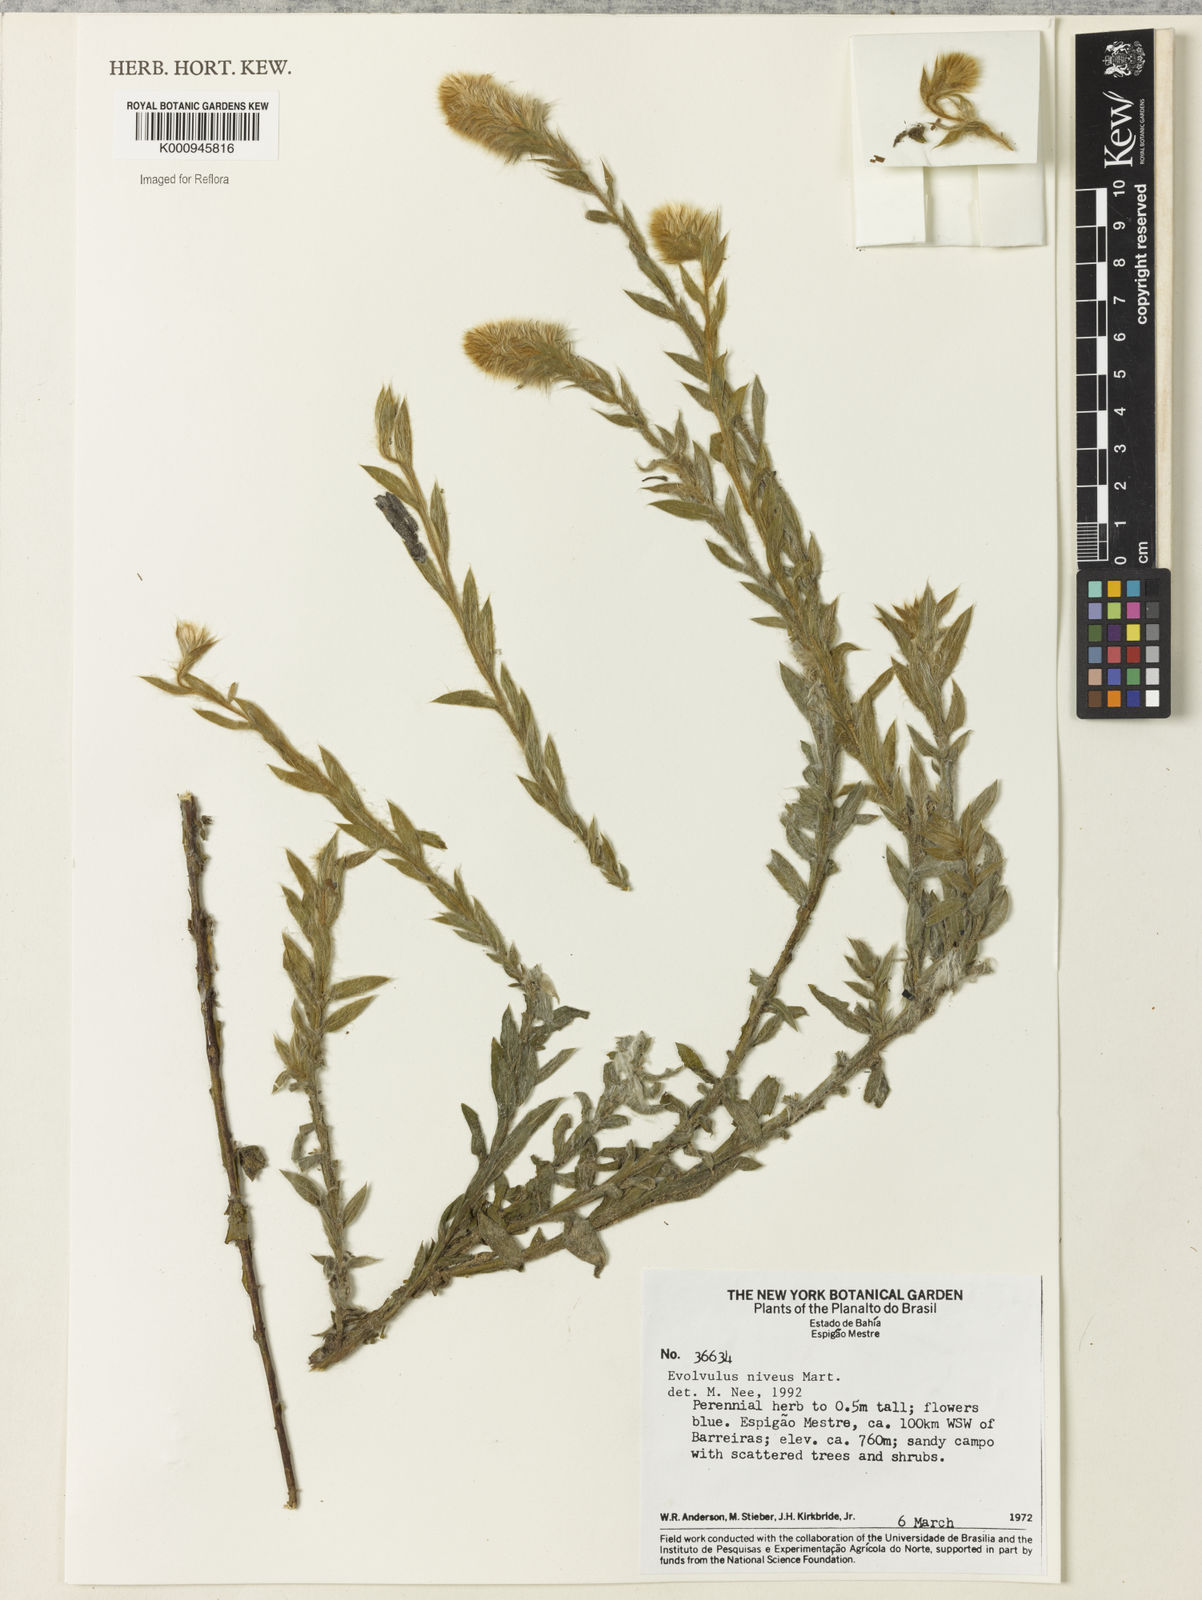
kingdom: Plantae
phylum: Tracheophyta
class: Magnoliopsida
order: Solanales
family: Convolvulaceae
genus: Evolvulus
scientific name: Evolvulus niveus
